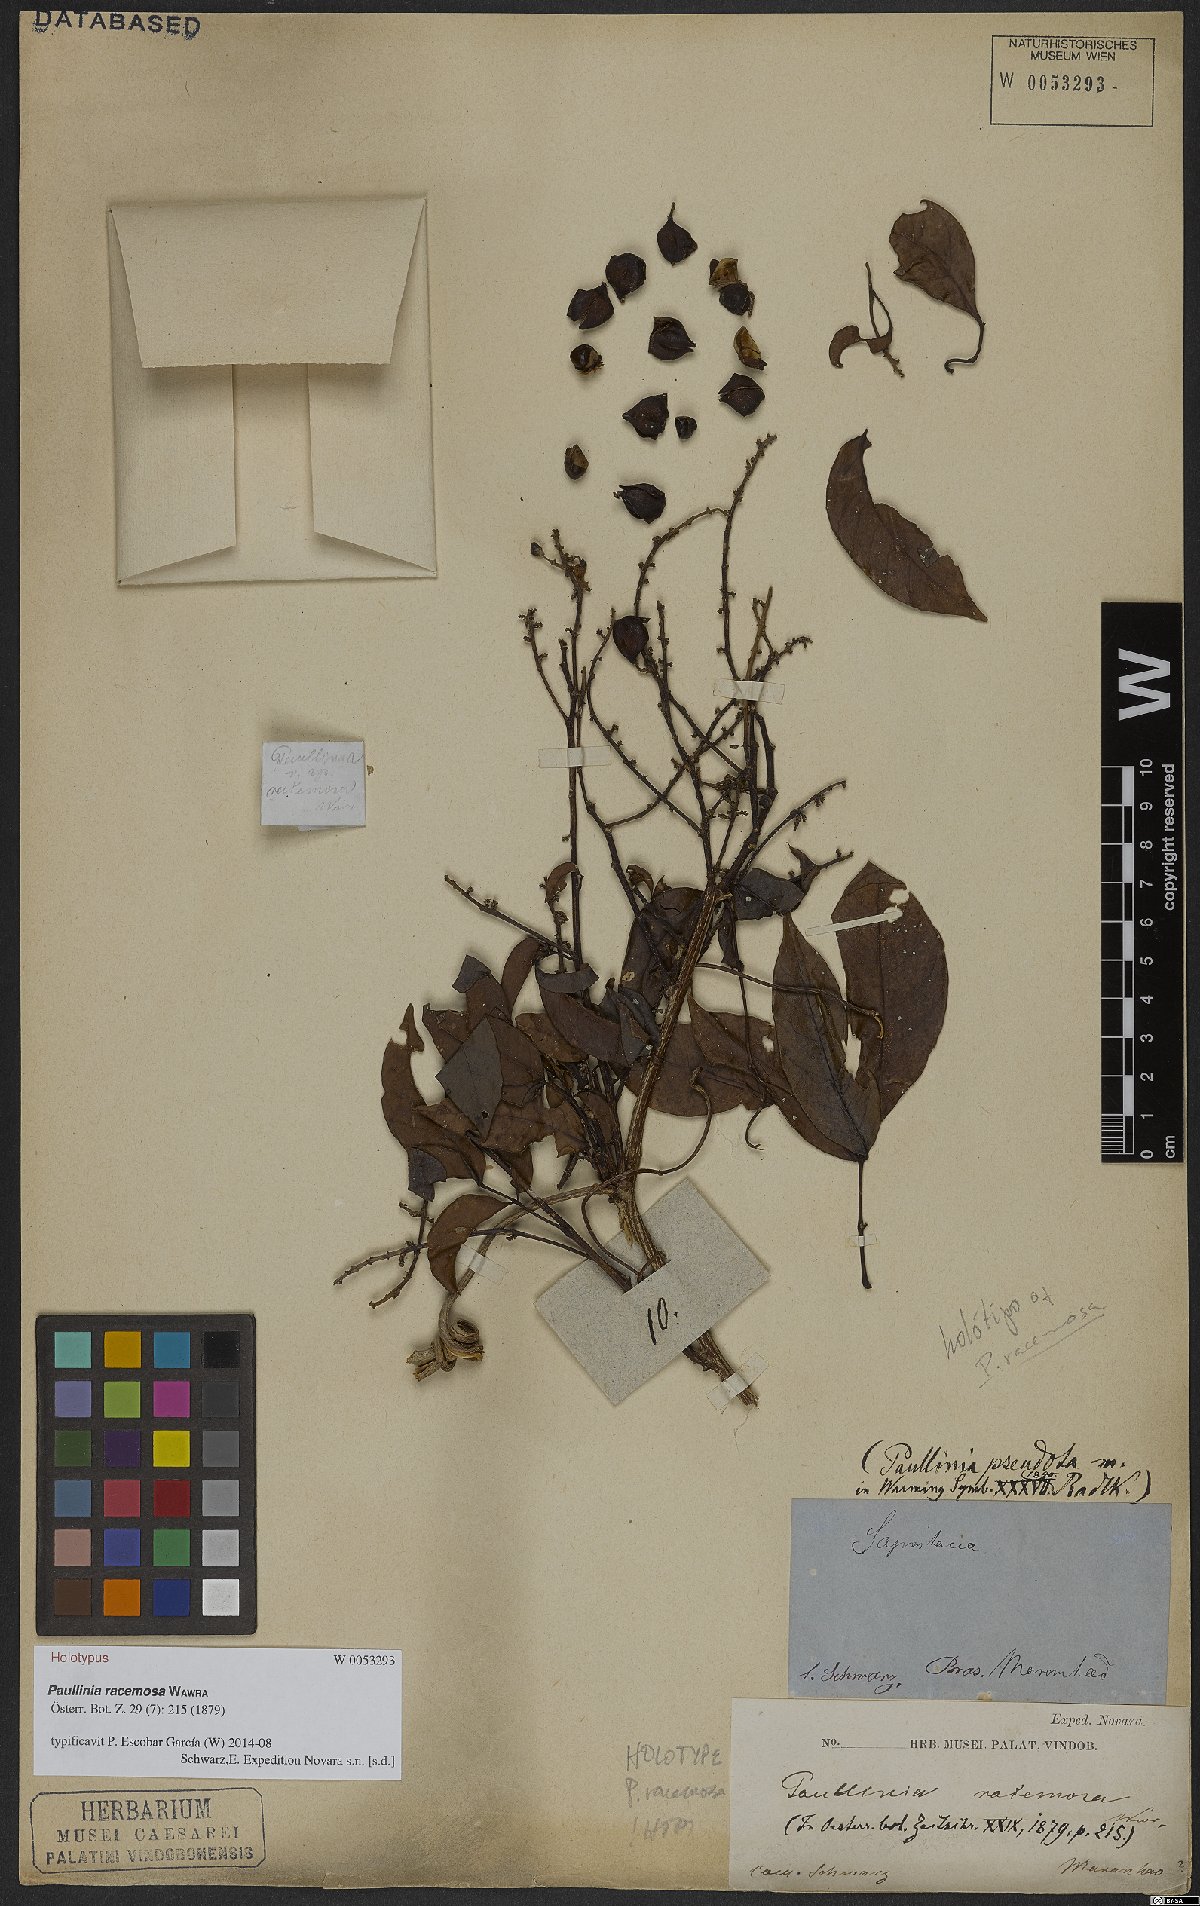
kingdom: Plantae
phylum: Tracheophyta
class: Magnoliopsida
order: Sapindales
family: Sapindaceae
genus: Paullinia
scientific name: Paullinia racemosa
